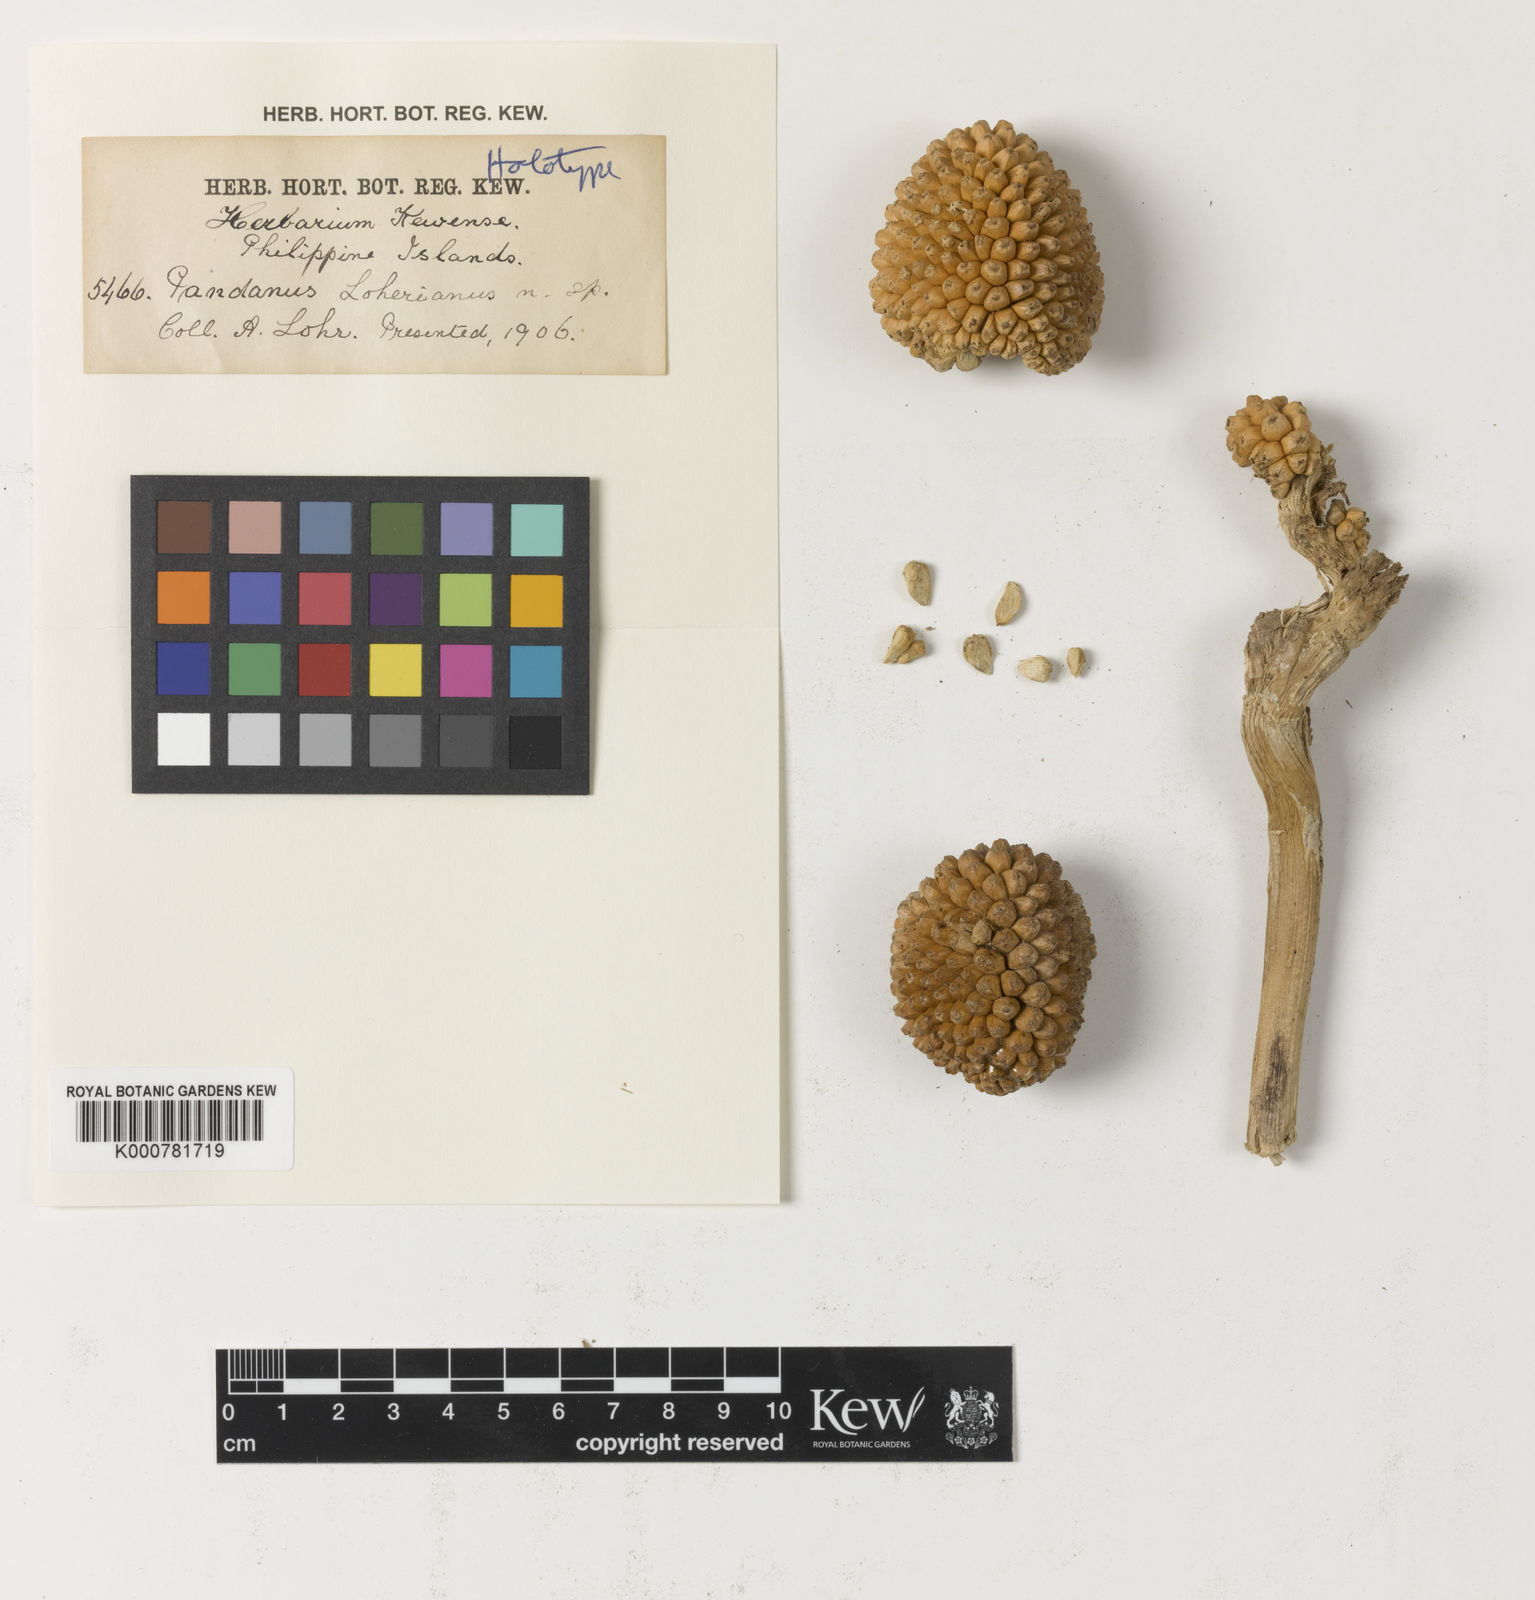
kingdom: Plantae
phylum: Tracheophyta
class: Liliopsida
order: Pandanales
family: Pandanaceae
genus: Pandanus
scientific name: Pandanus loherianus
